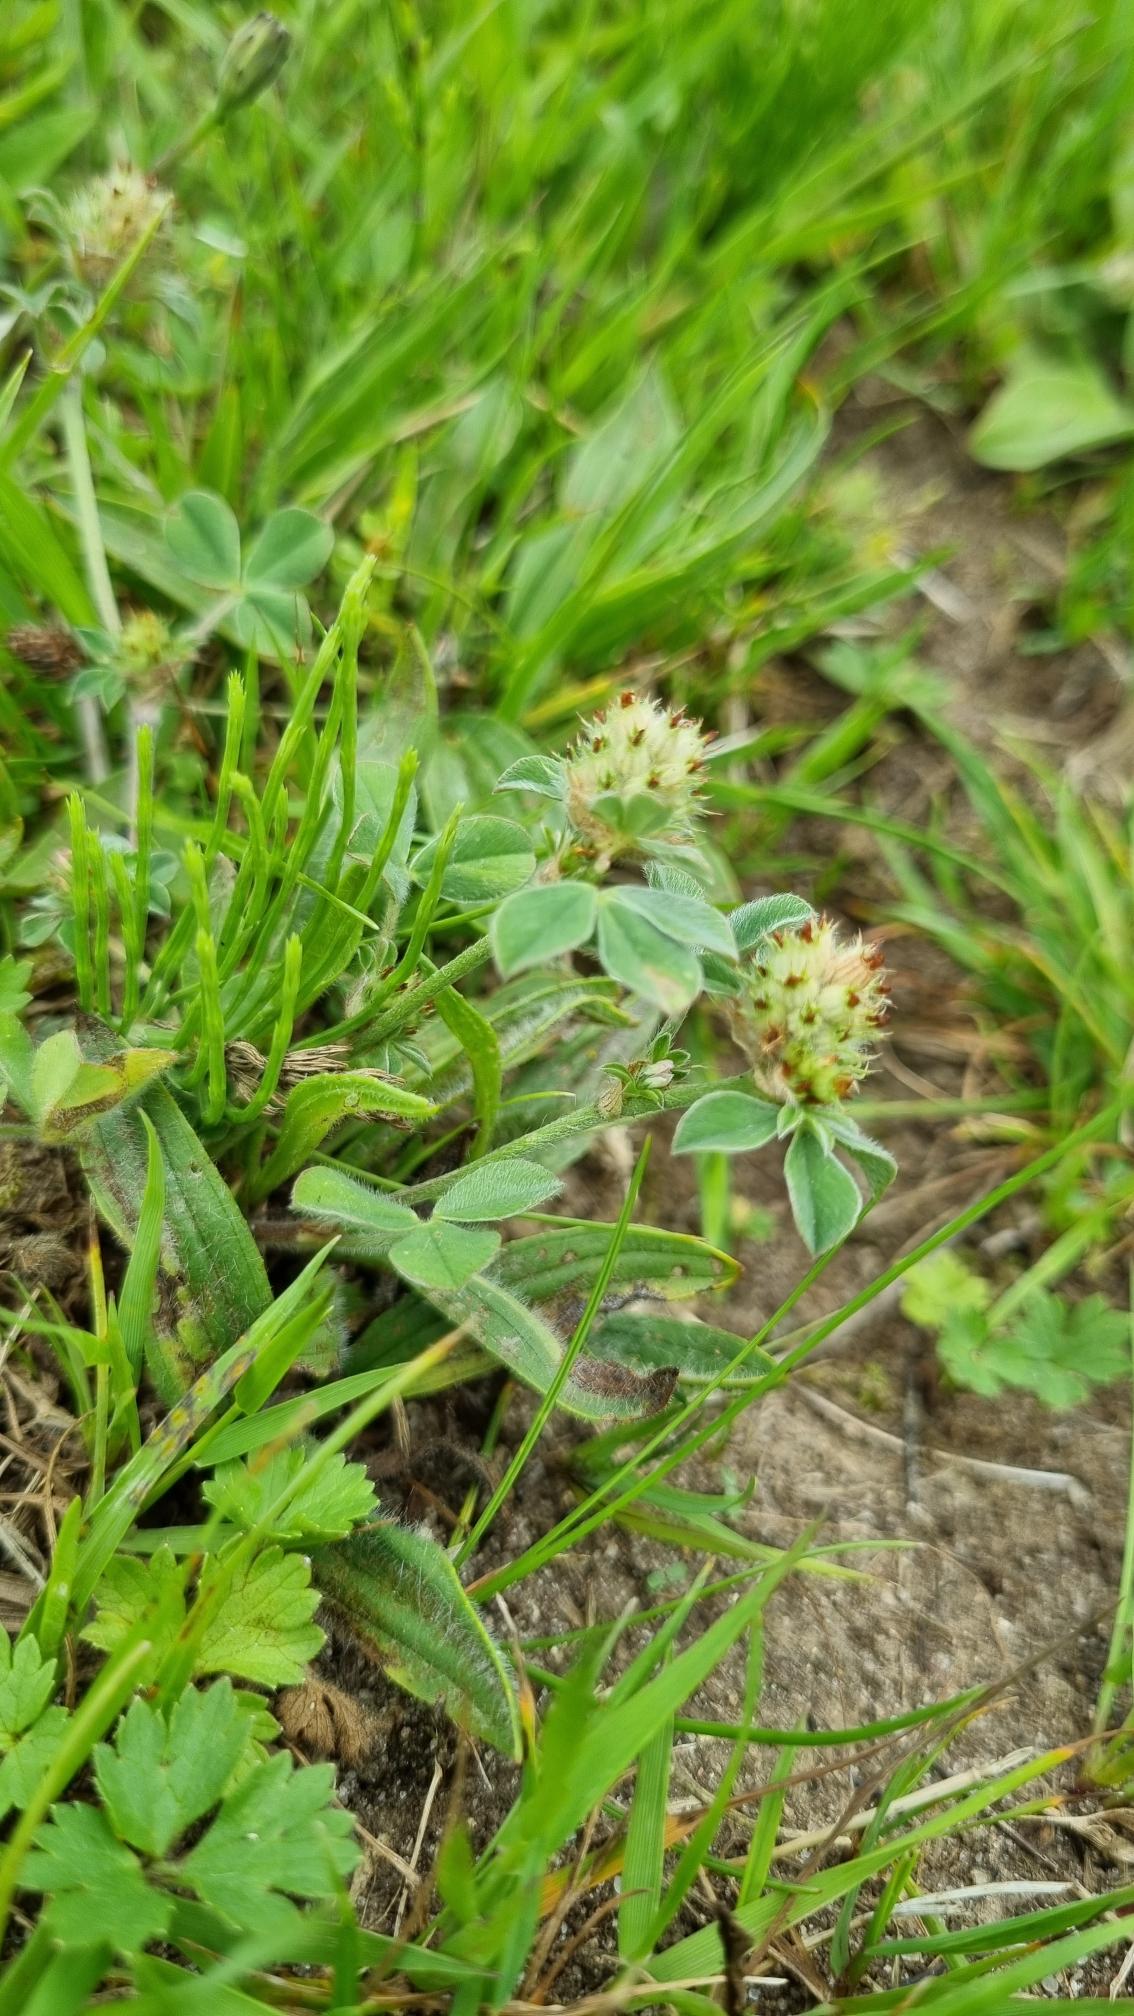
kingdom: Plantae
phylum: Tracheophyta
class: Magnoliopsida
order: Fabales
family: Fabaceae
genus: Trifolium
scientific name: Trifolium striatum
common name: Stribet kløver
